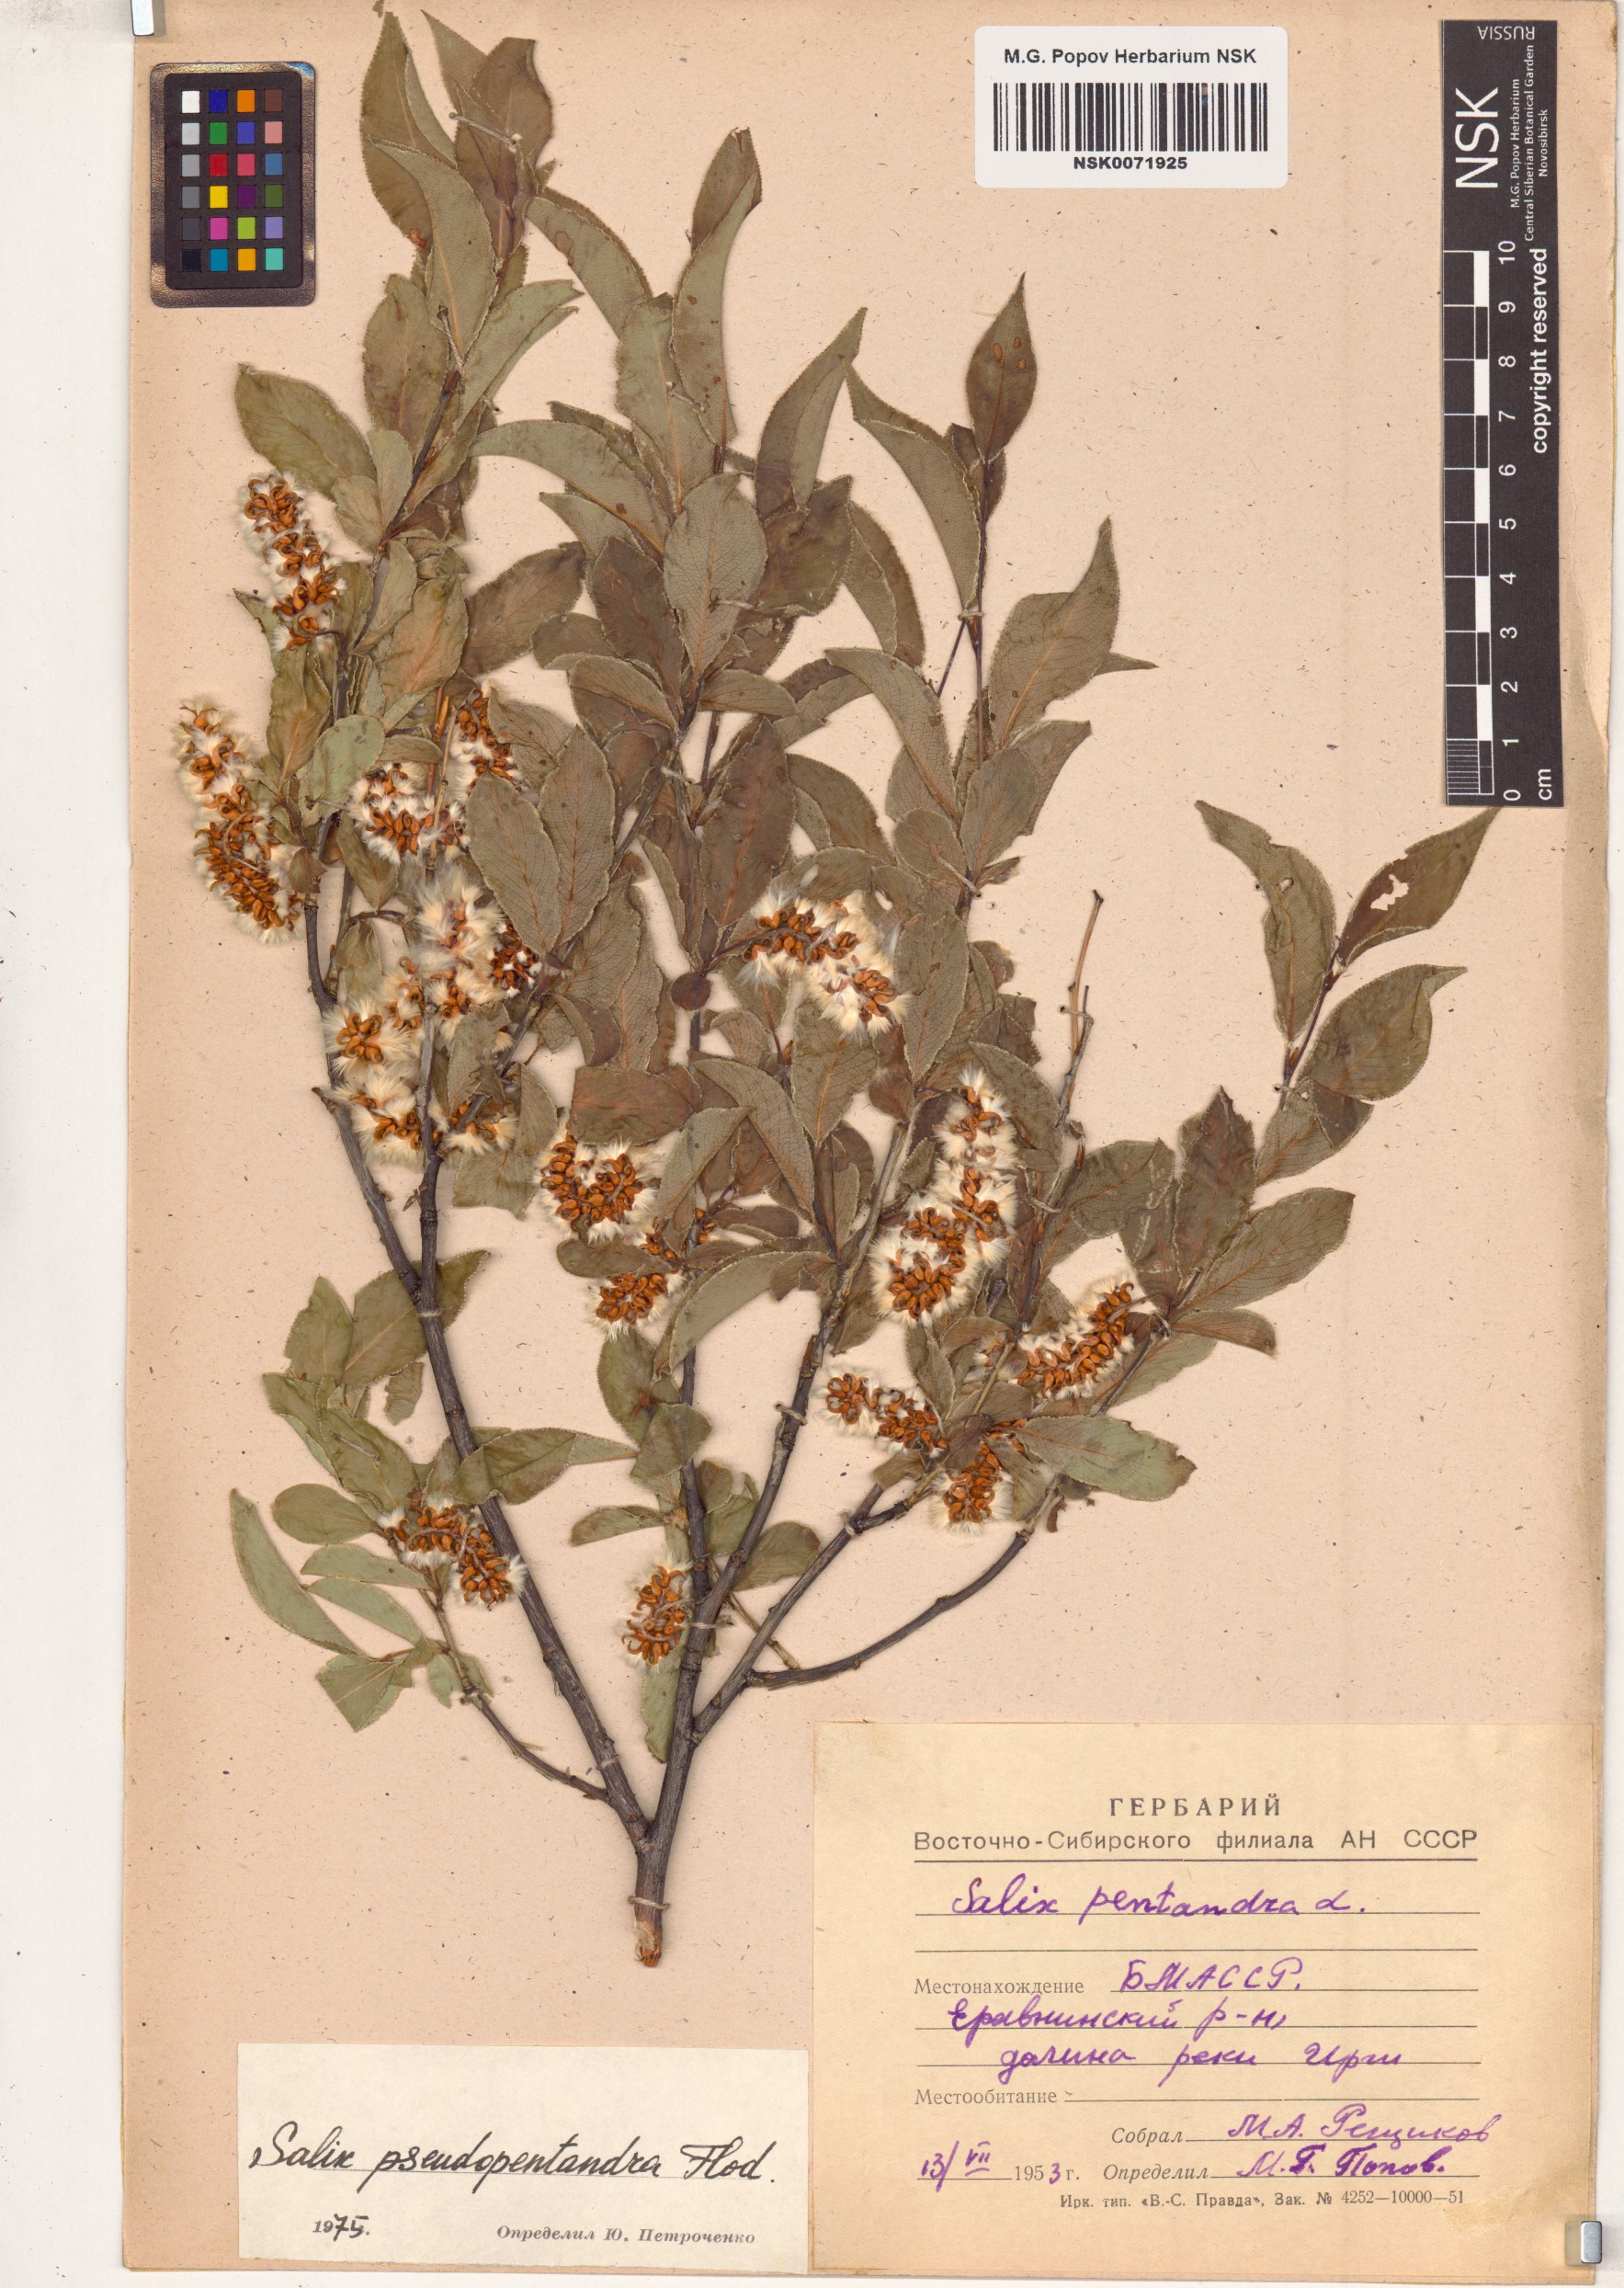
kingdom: Plantae
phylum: Tracheophyta
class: Magnoliopsida
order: Malpighiales
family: Salicaceae
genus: Salix
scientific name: Salix pseudopentandra
